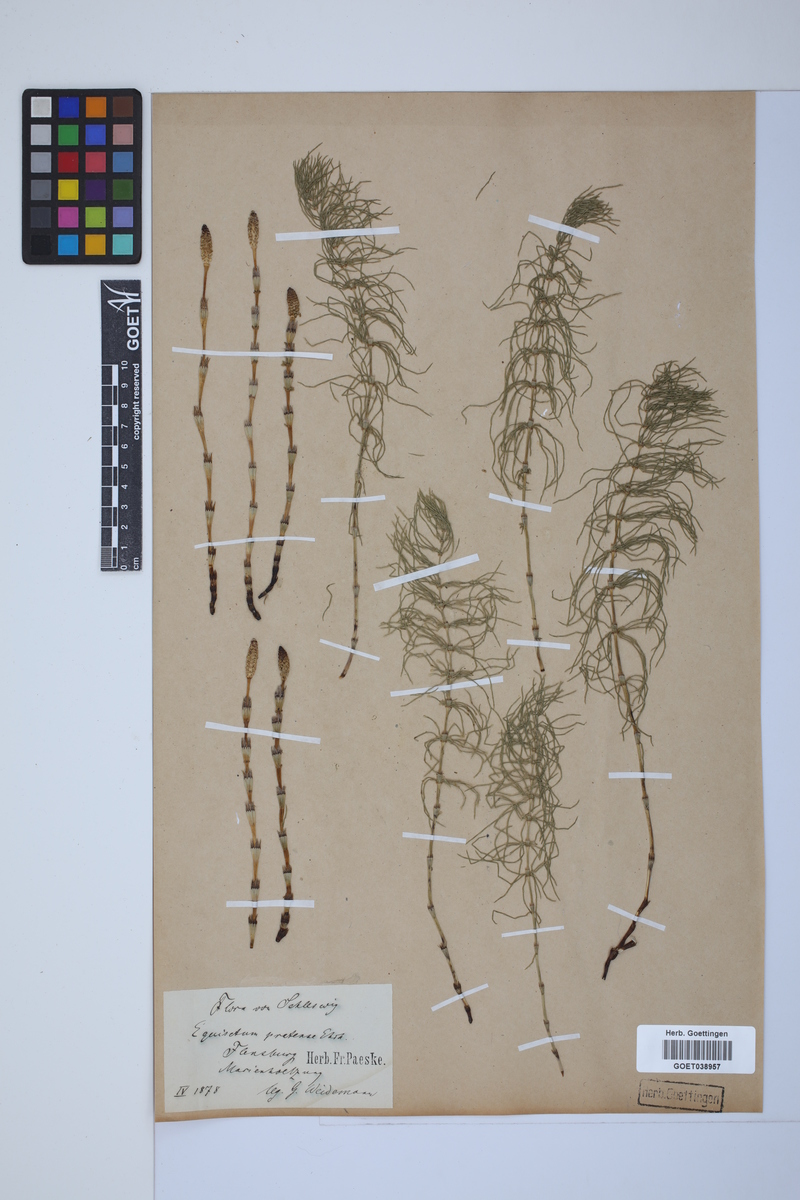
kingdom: Plantae
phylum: Tracheophyta
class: Polypodiopsida
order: Equisetales
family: Equisetaceae
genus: Equisetum
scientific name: Equisetum pratense
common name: Meadow horsetail
